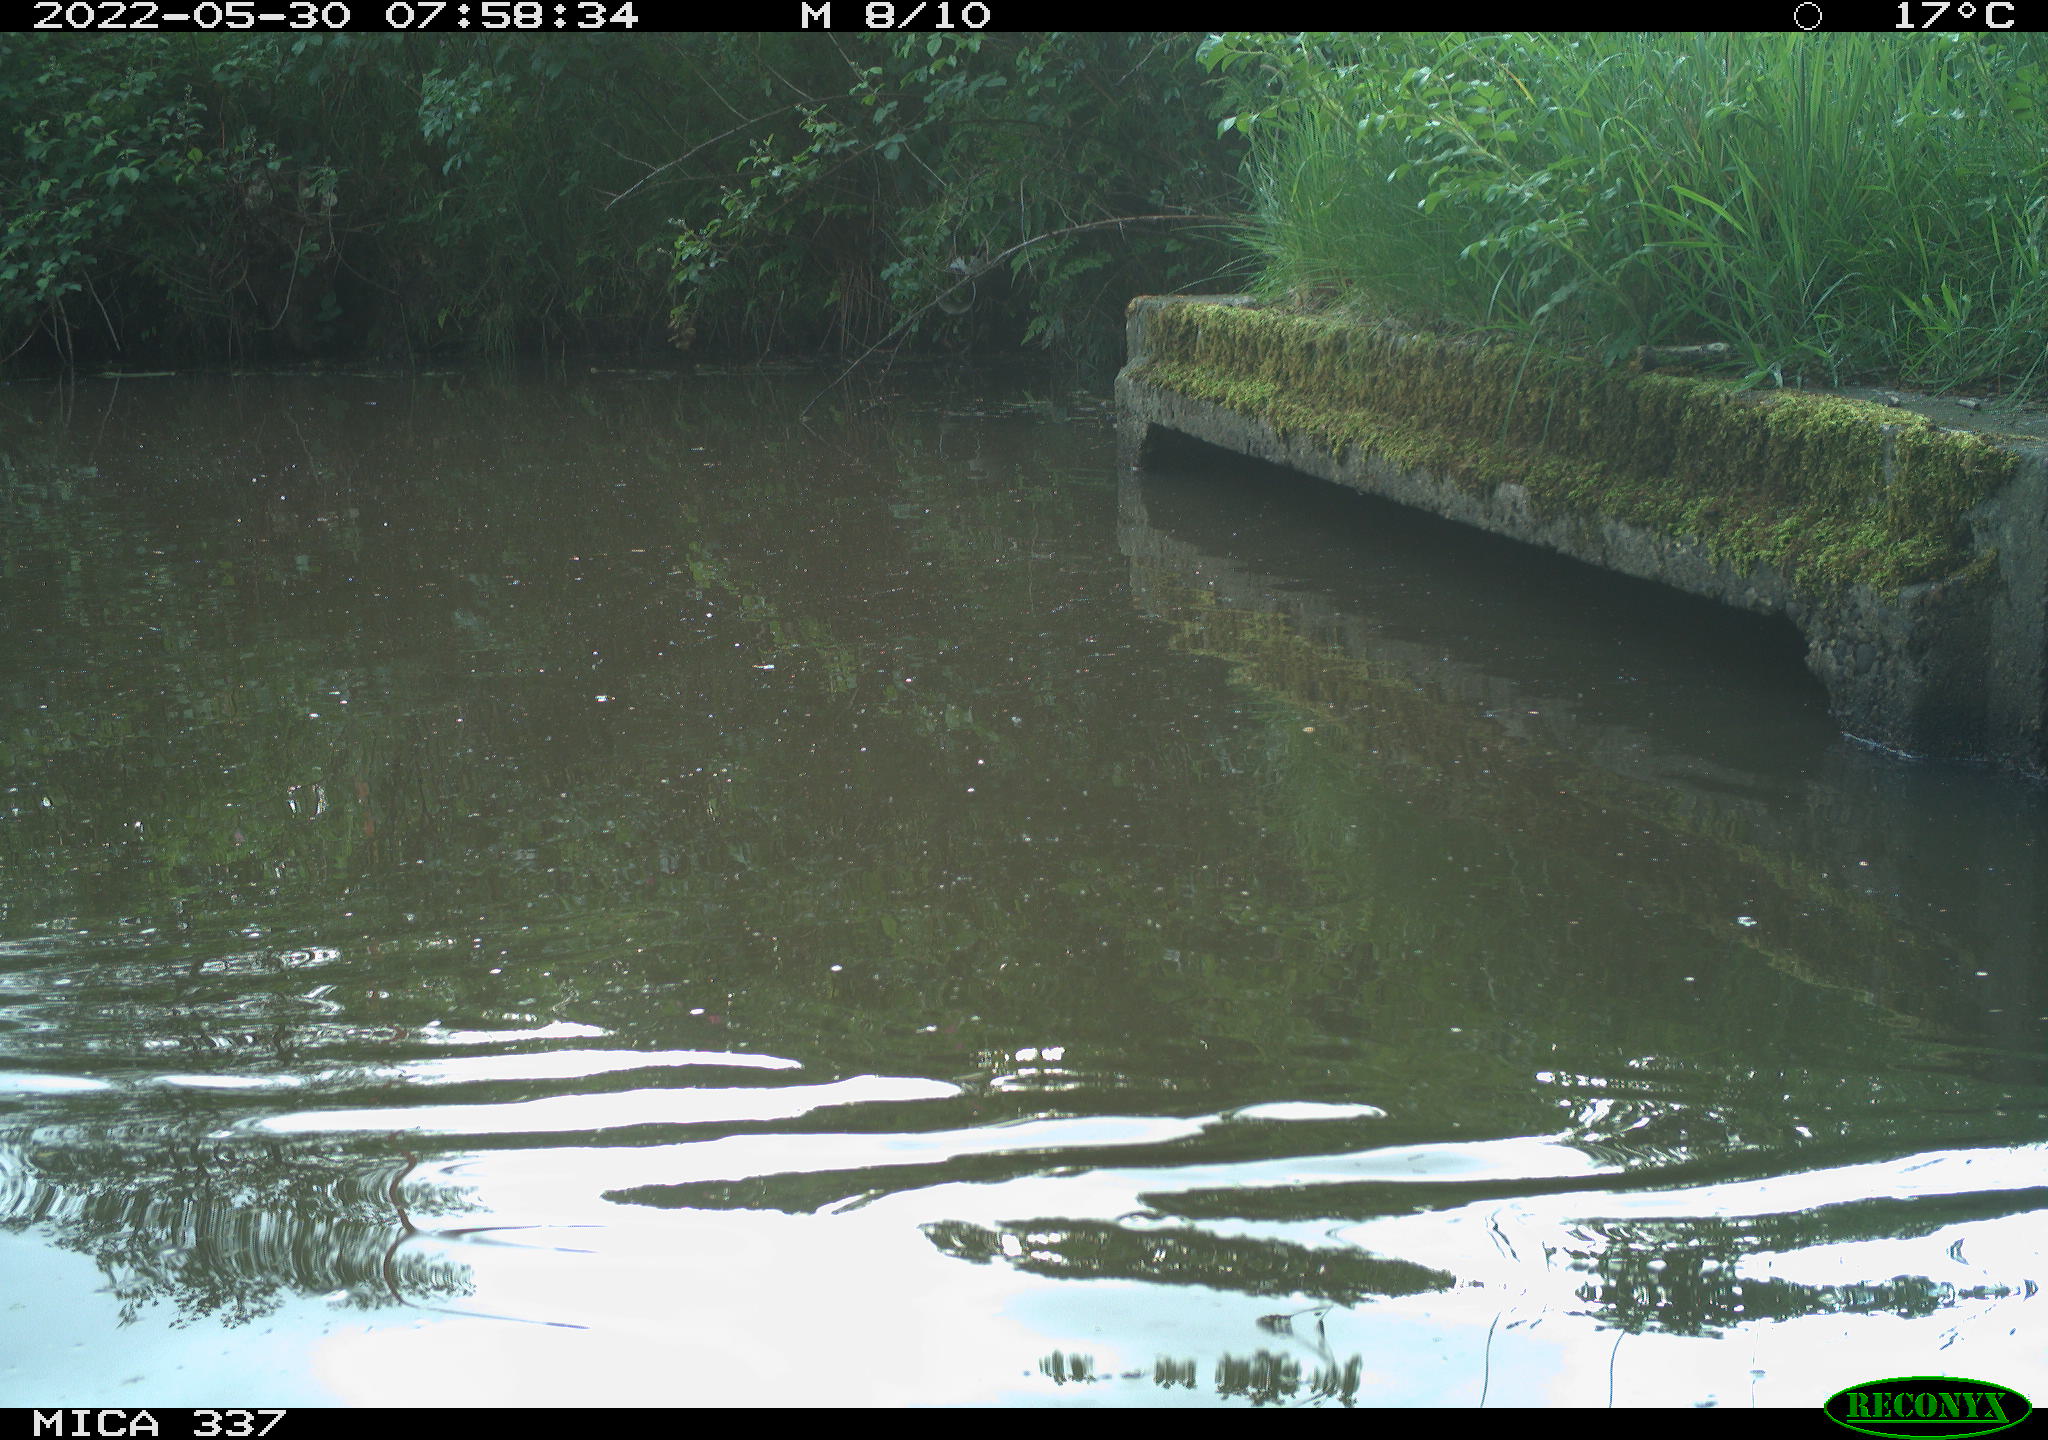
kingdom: Animalia
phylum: Chordata
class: Aves
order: Anseriformes
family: Anatidae
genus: Anas
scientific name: Anas platyrhynchos
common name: Mallard
